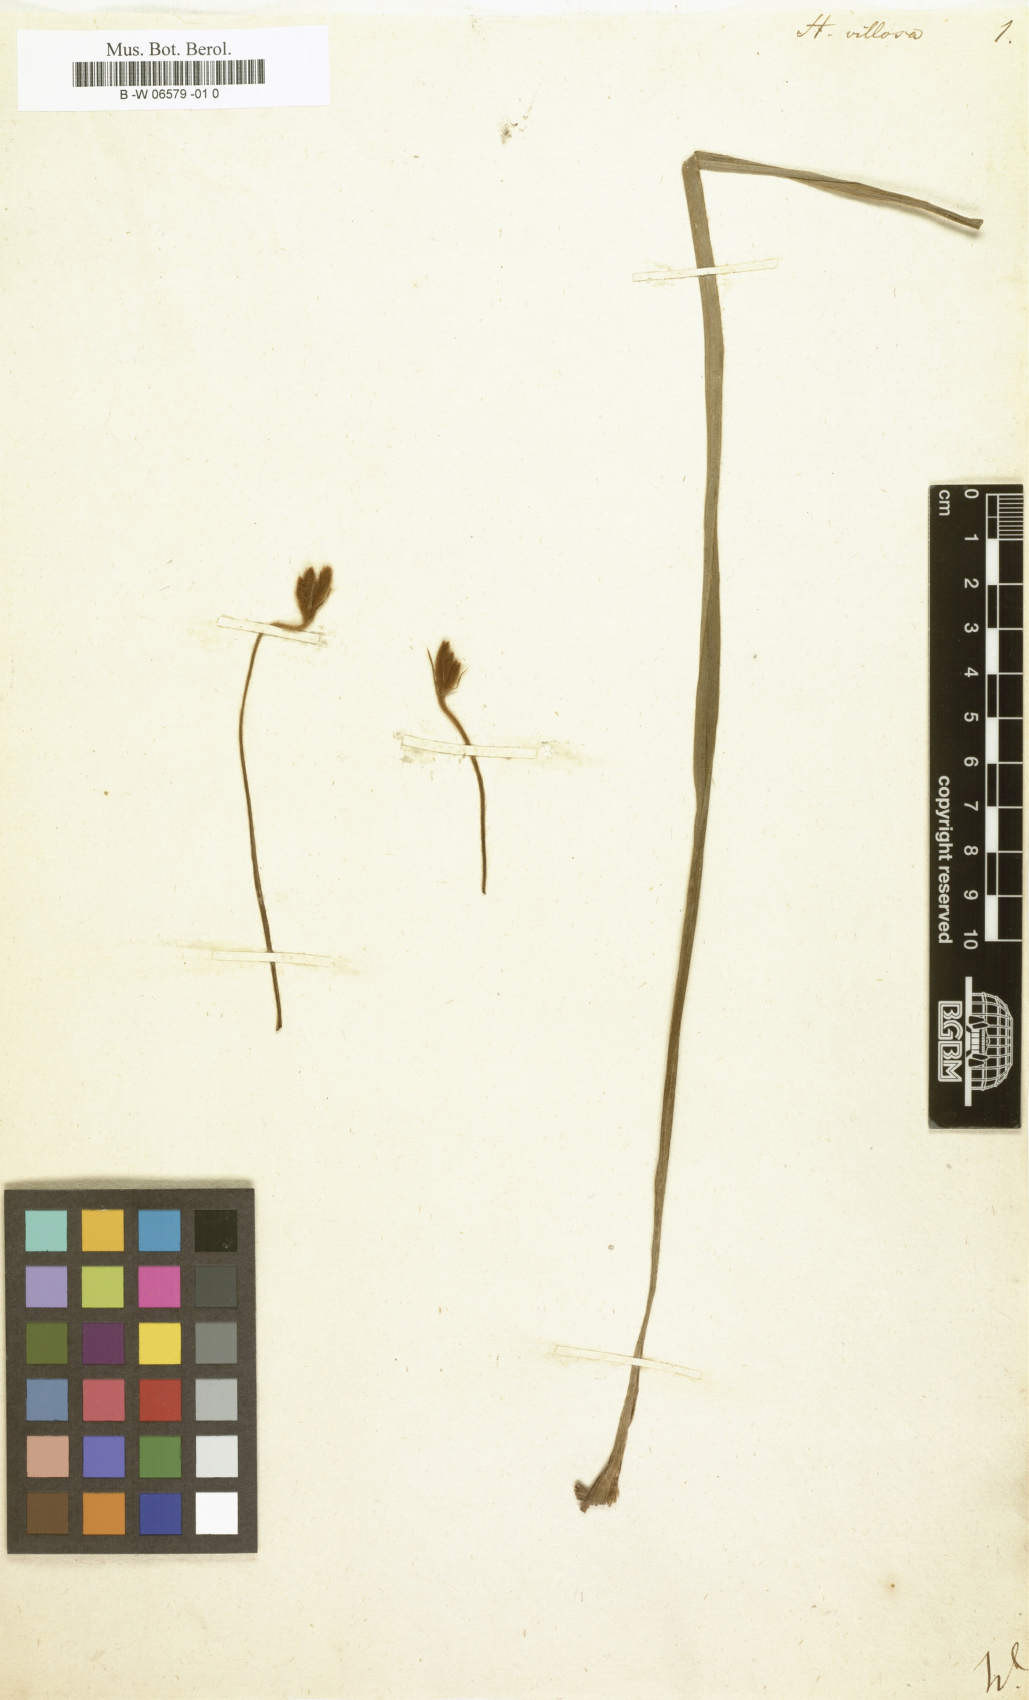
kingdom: Plantae
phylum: Tracheophyta
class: Liliopsida
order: Asparagales
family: Hypoxidaceae
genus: Hypoxis
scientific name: Hypoxis villosa
